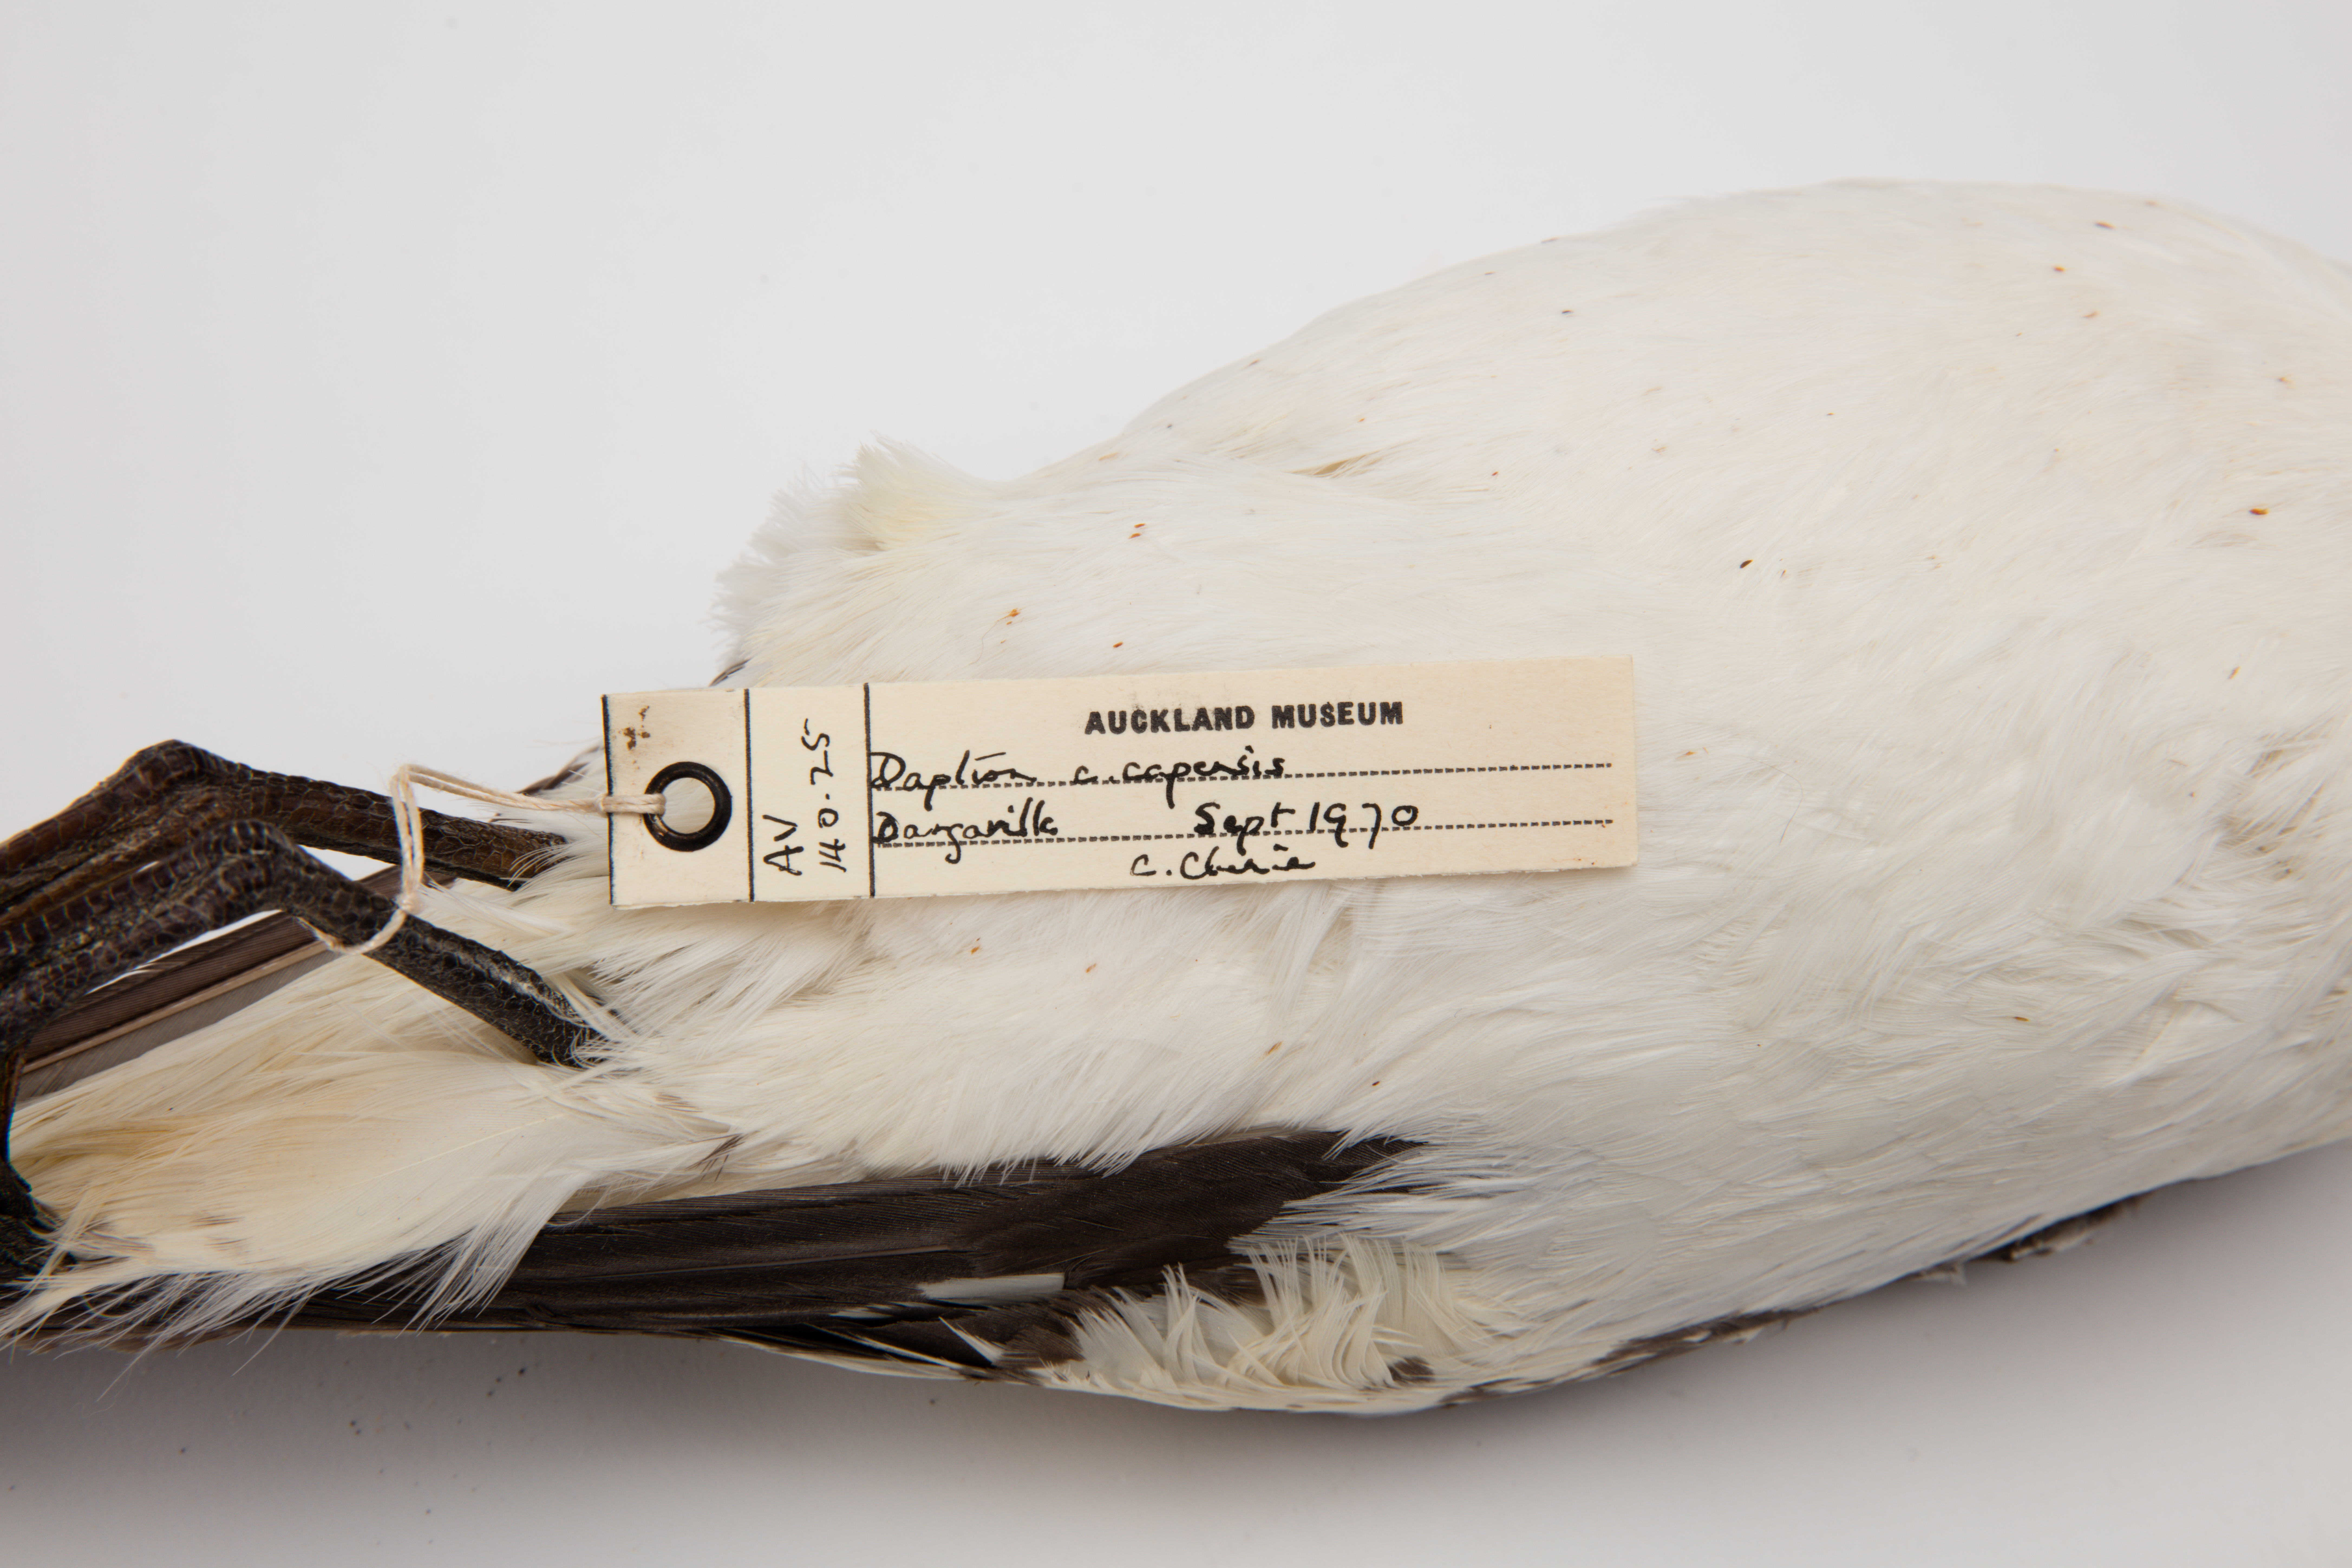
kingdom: Animalia
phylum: Chordata
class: Aves
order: Procellariiformes
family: Procellariidae
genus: Daption
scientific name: Daption capense
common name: Cape petrel
